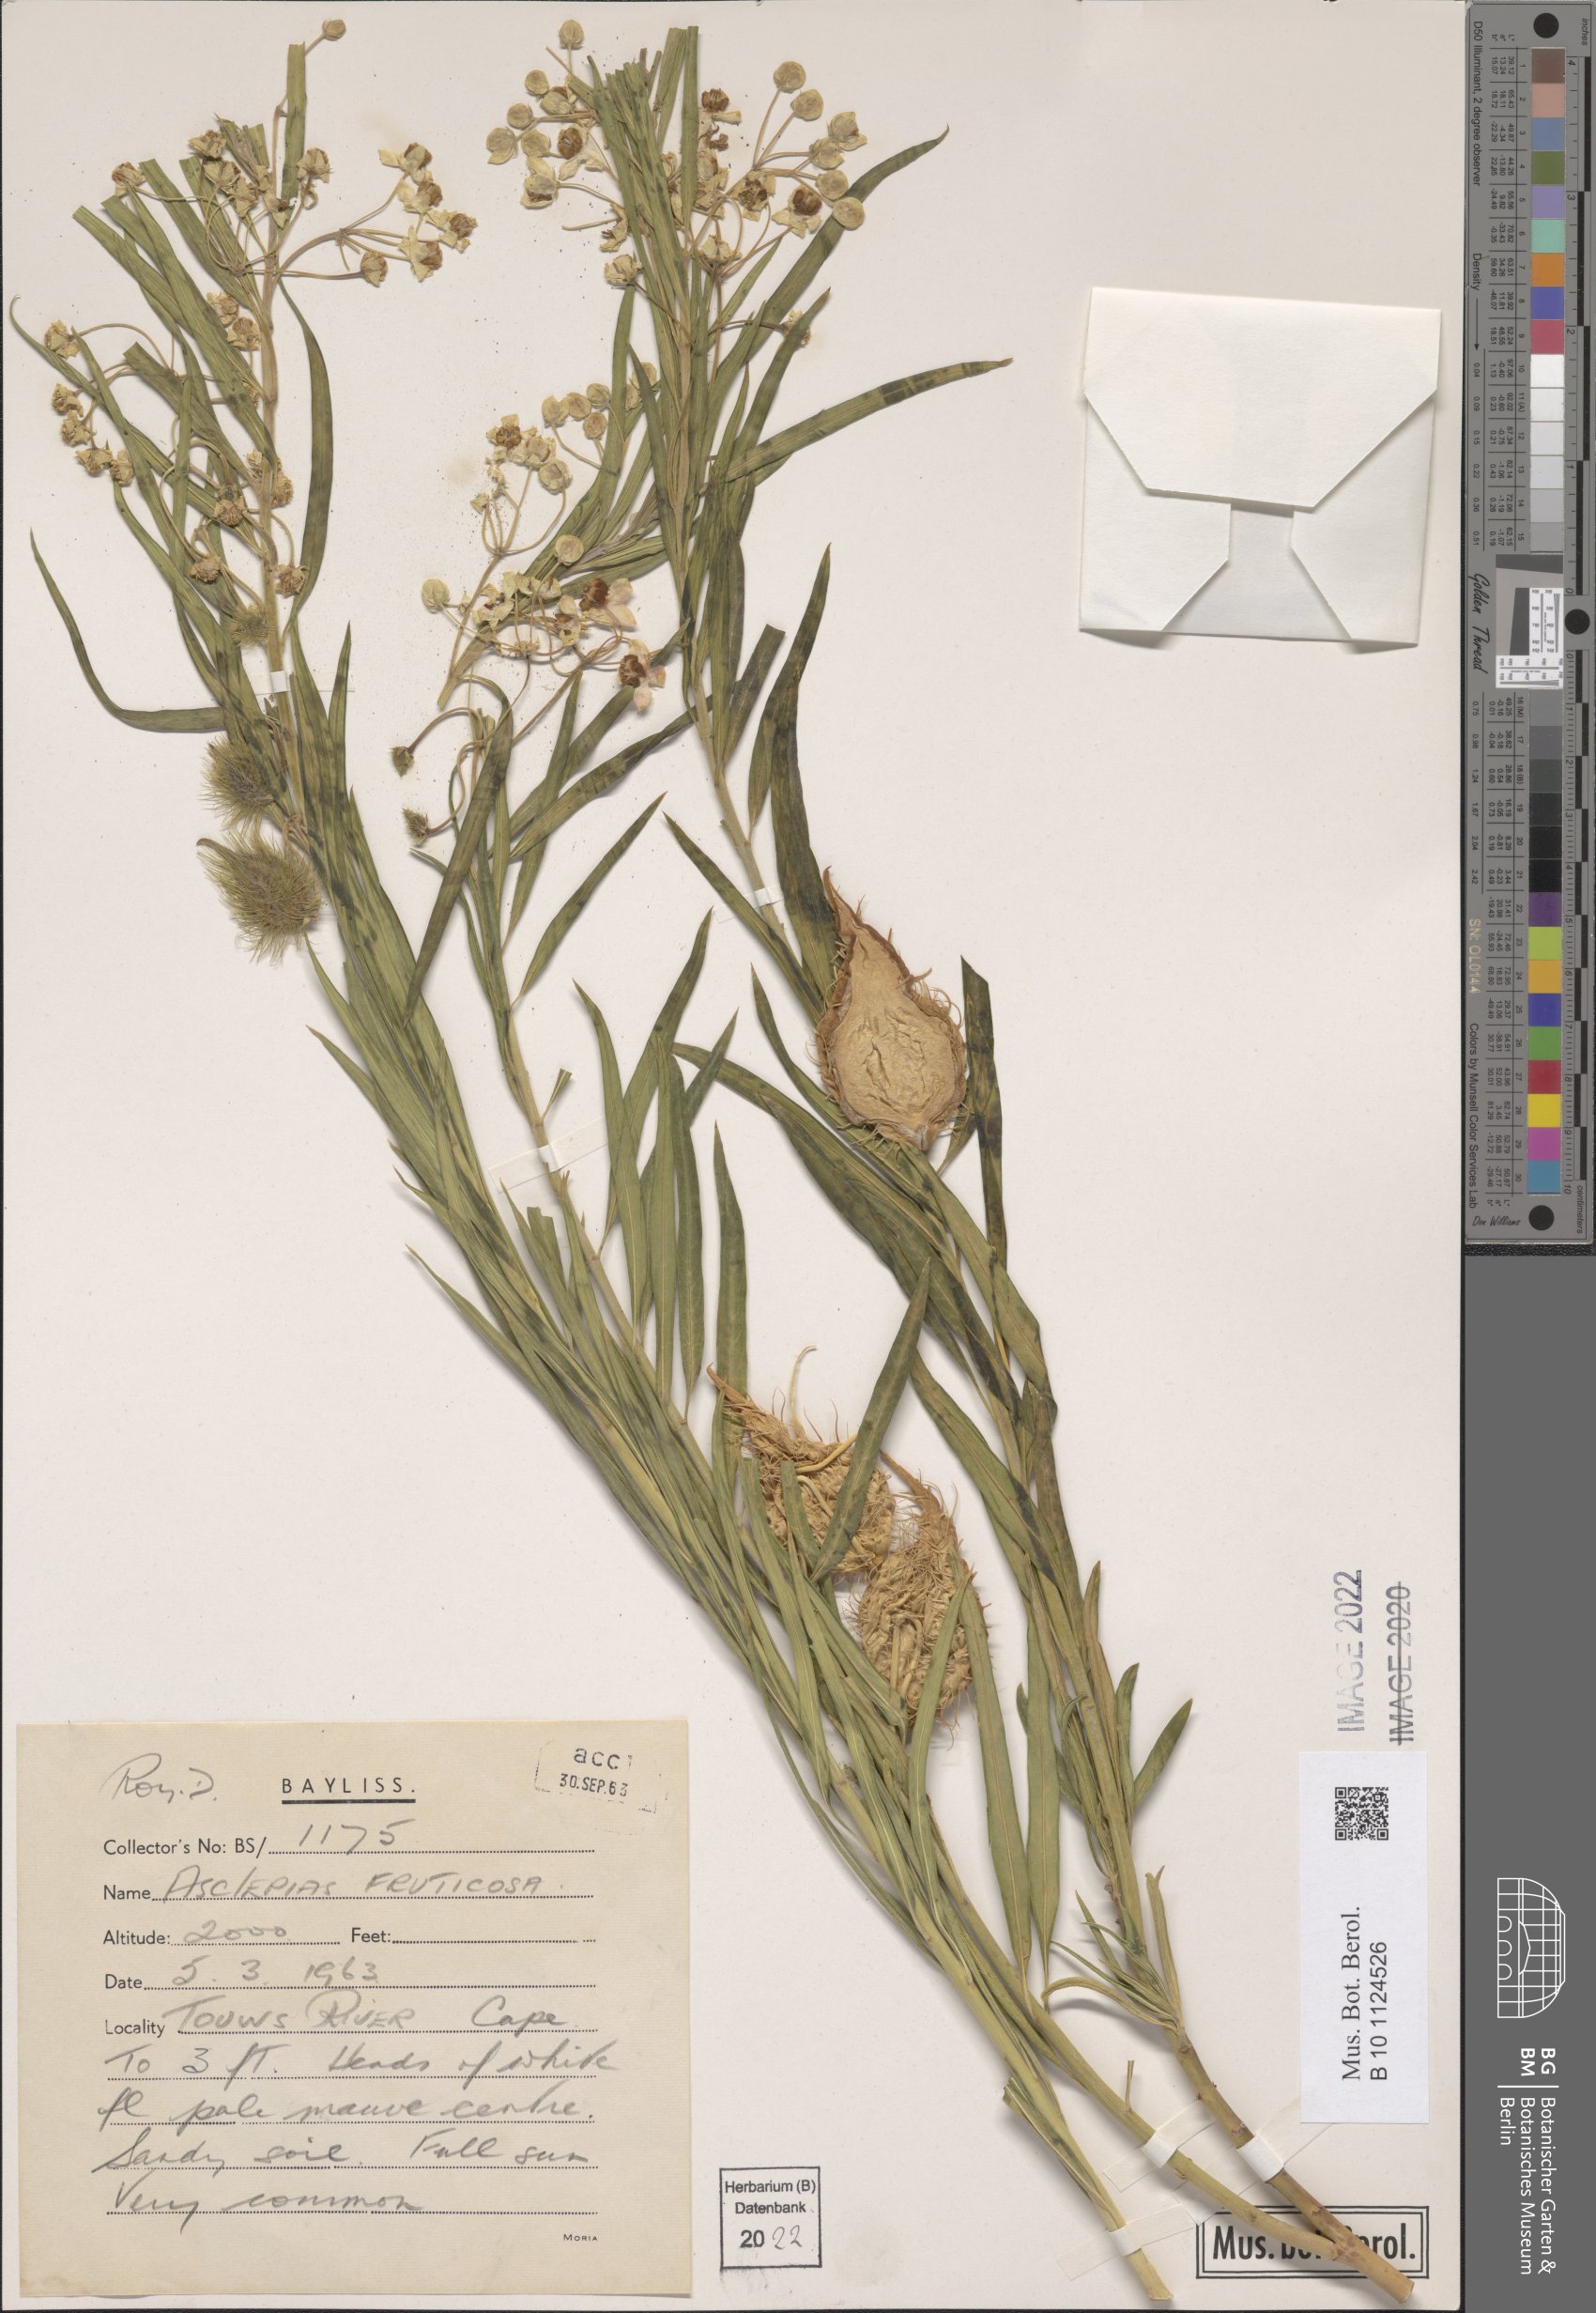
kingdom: Plantae
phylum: Tracheophyta
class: Magnoliopsida
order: Gentianales
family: Apocynaceae
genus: Gomphocarpus
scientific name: Gomphocarpus fruticosus
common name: Milkweed
